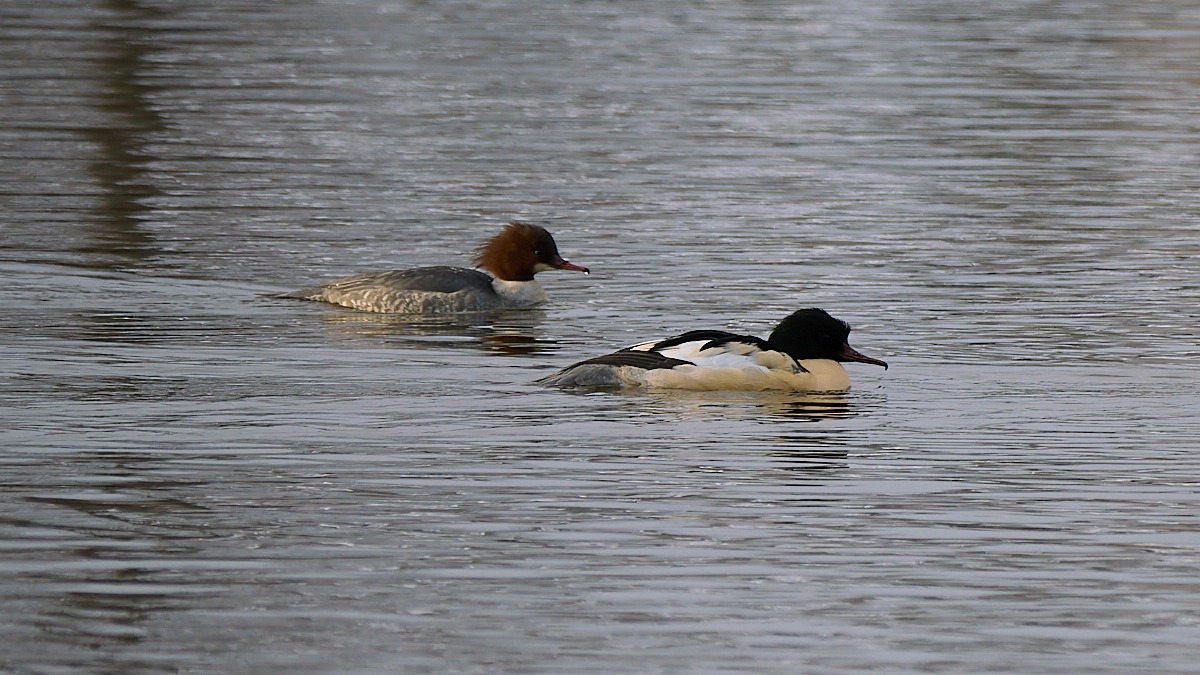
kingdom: Animalia
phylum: Chordata
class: Aves
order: Anseriformes
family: Anatidae
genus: Mergus
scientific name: Mergus merganser
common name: Stor skallesluger
